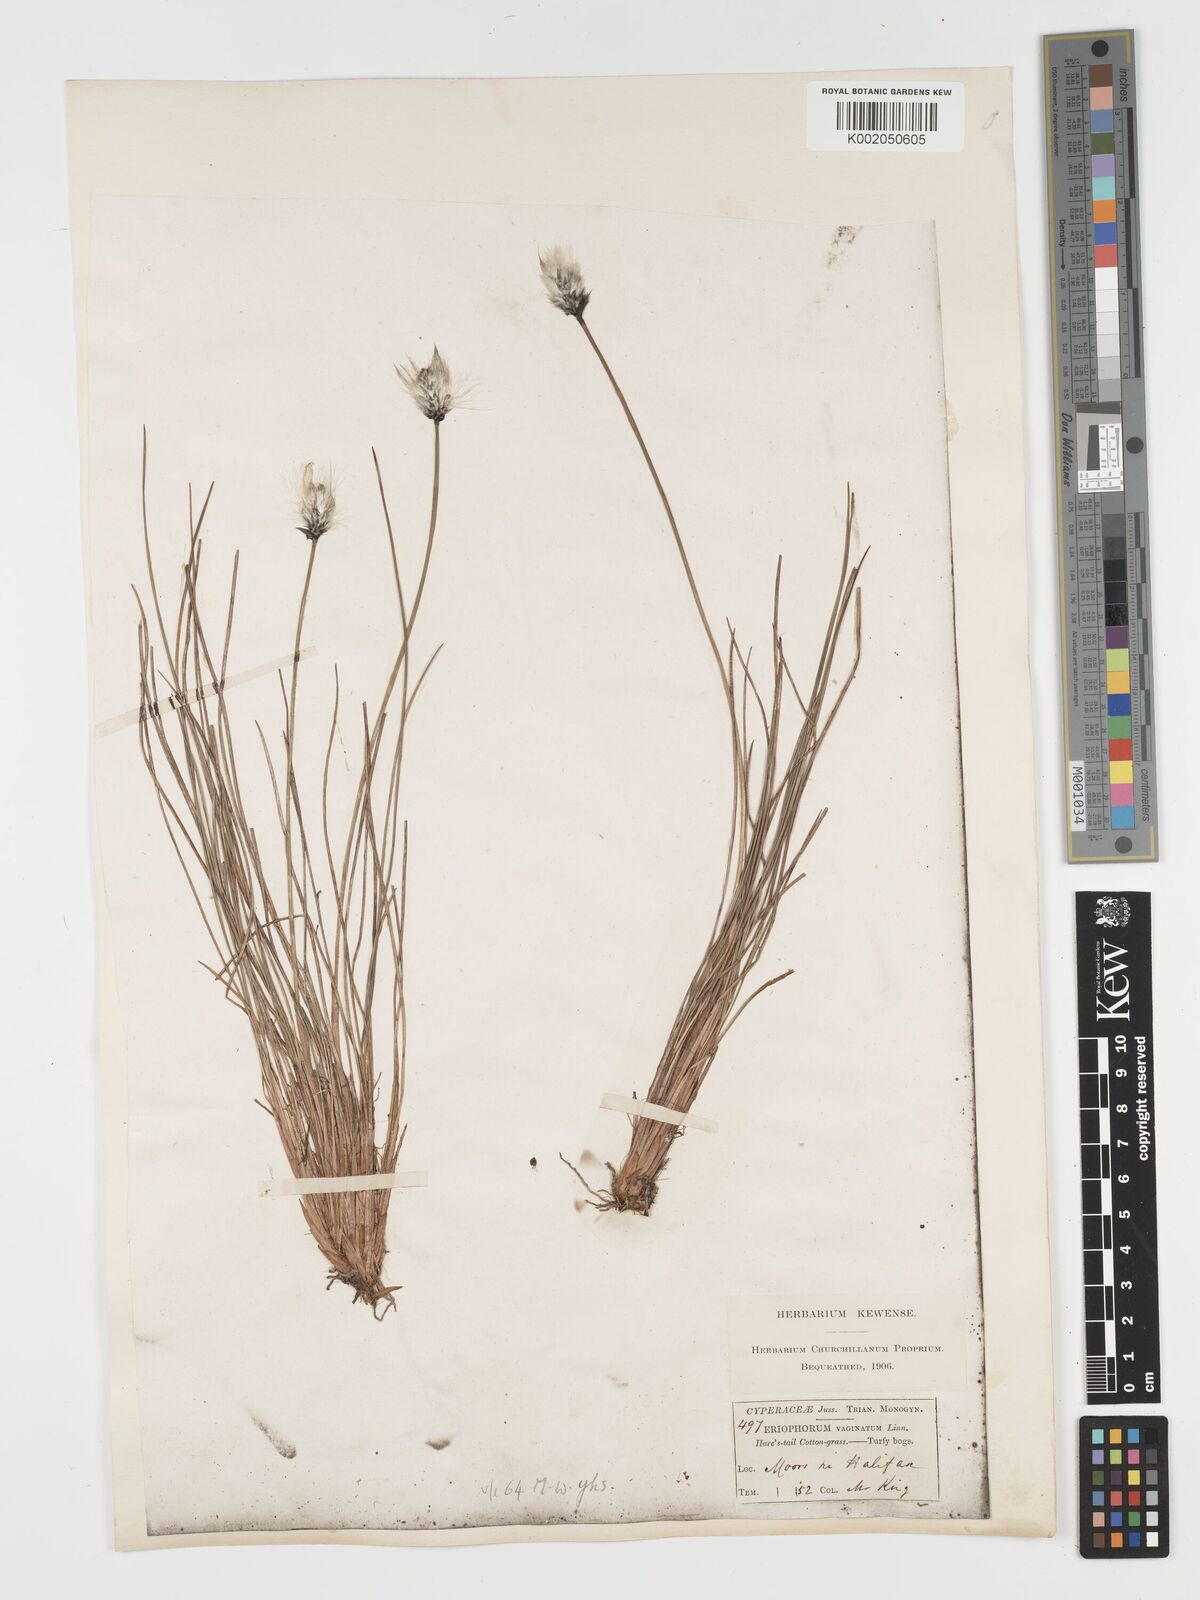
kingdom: Plantae
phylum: Tracheophyta
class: Liliopsida
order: Poales
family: Cyperaceae
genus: Eriophorum
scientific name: Eriophorum vaginatum
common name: Hare's-tail cottongrass
